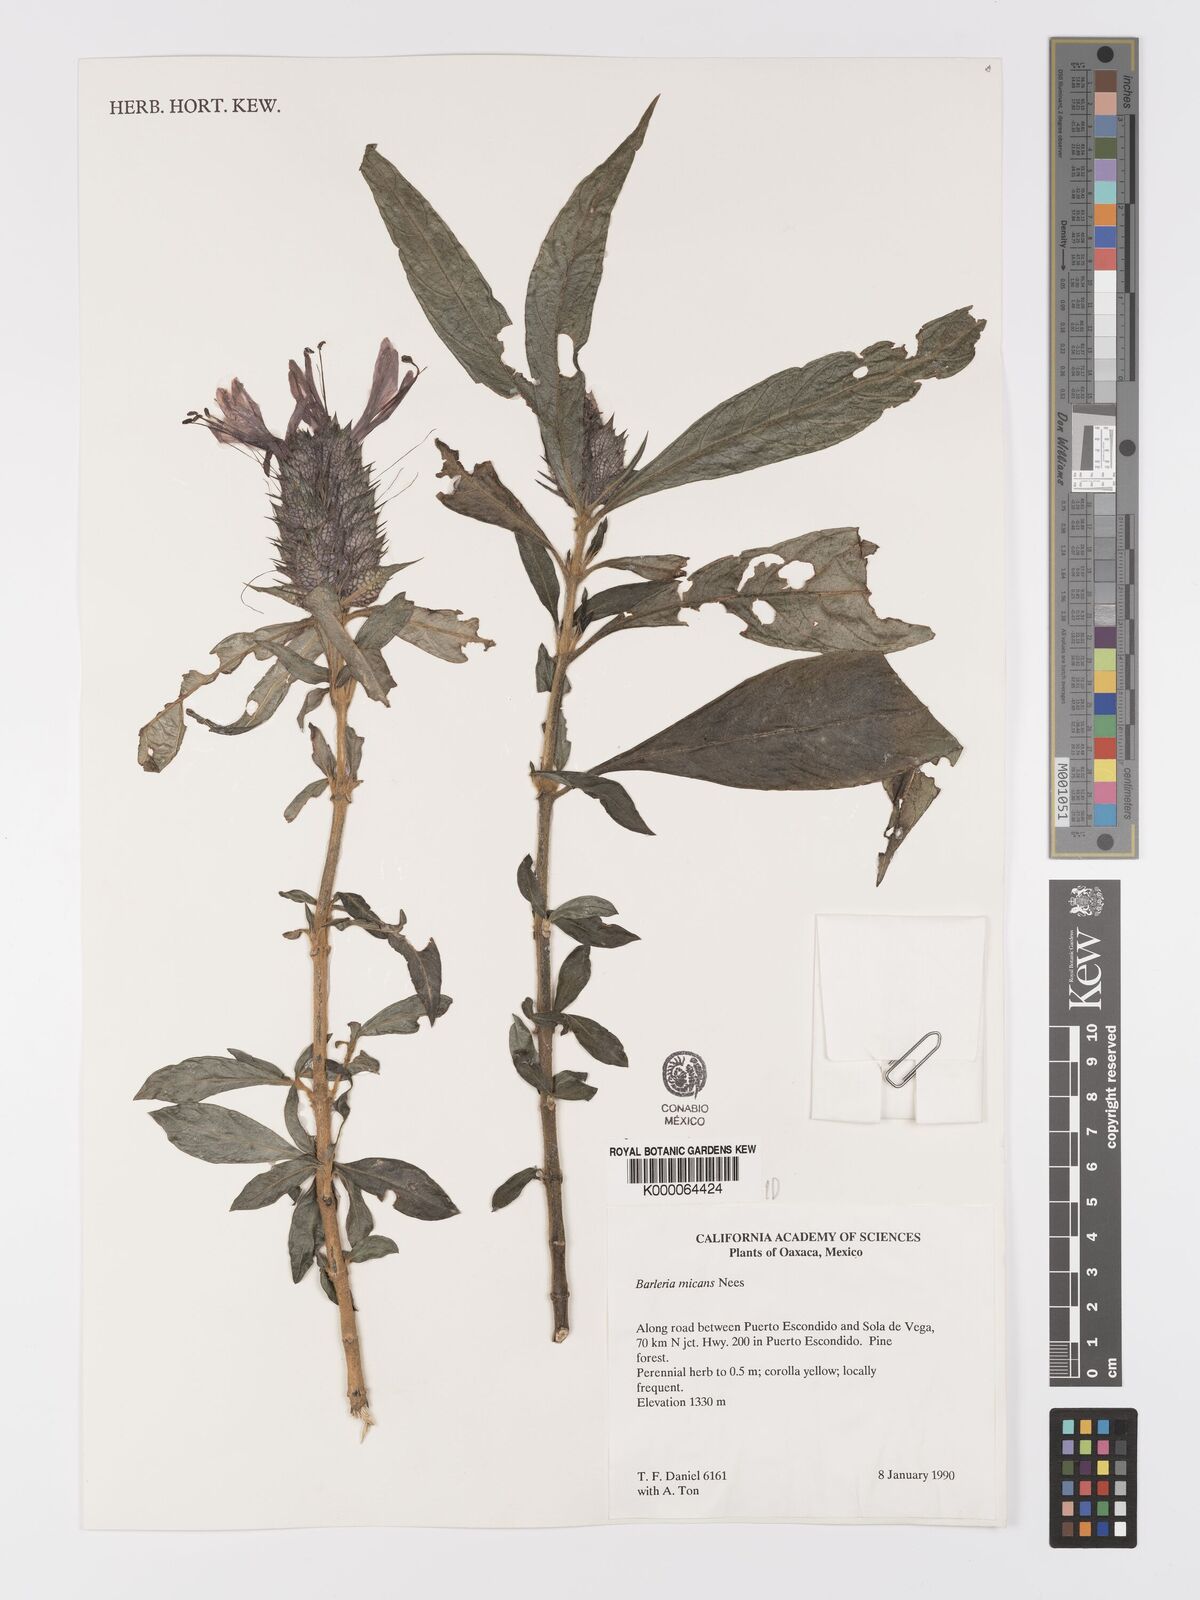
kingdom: Plantae
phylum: Tracheophyta
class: Magnoliopsida
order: Lamiales
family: Acanthaceae
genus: Barleria
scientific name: Barleria oenotheroides
